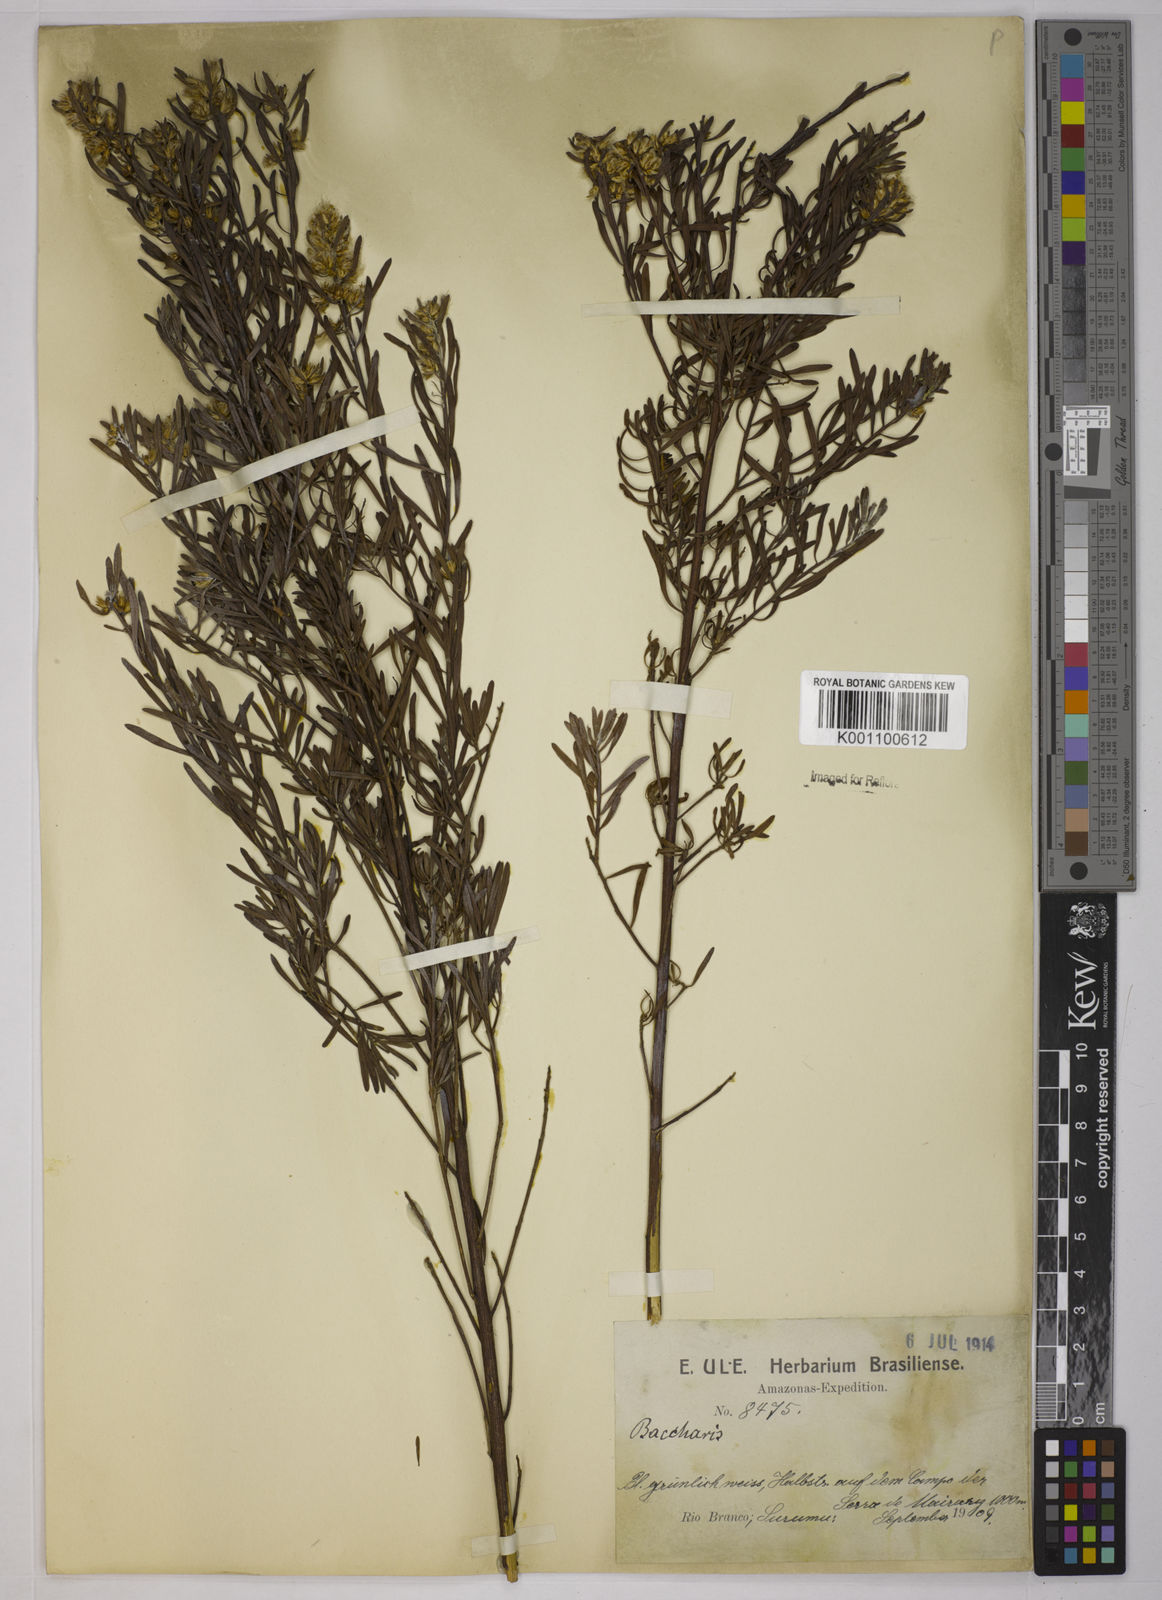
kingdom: Plantae
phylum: Tracheophyta
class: Magnoliopsida
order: Asterales
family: Asteraceae
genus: Baccharis
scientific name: Baccharis rufescens
